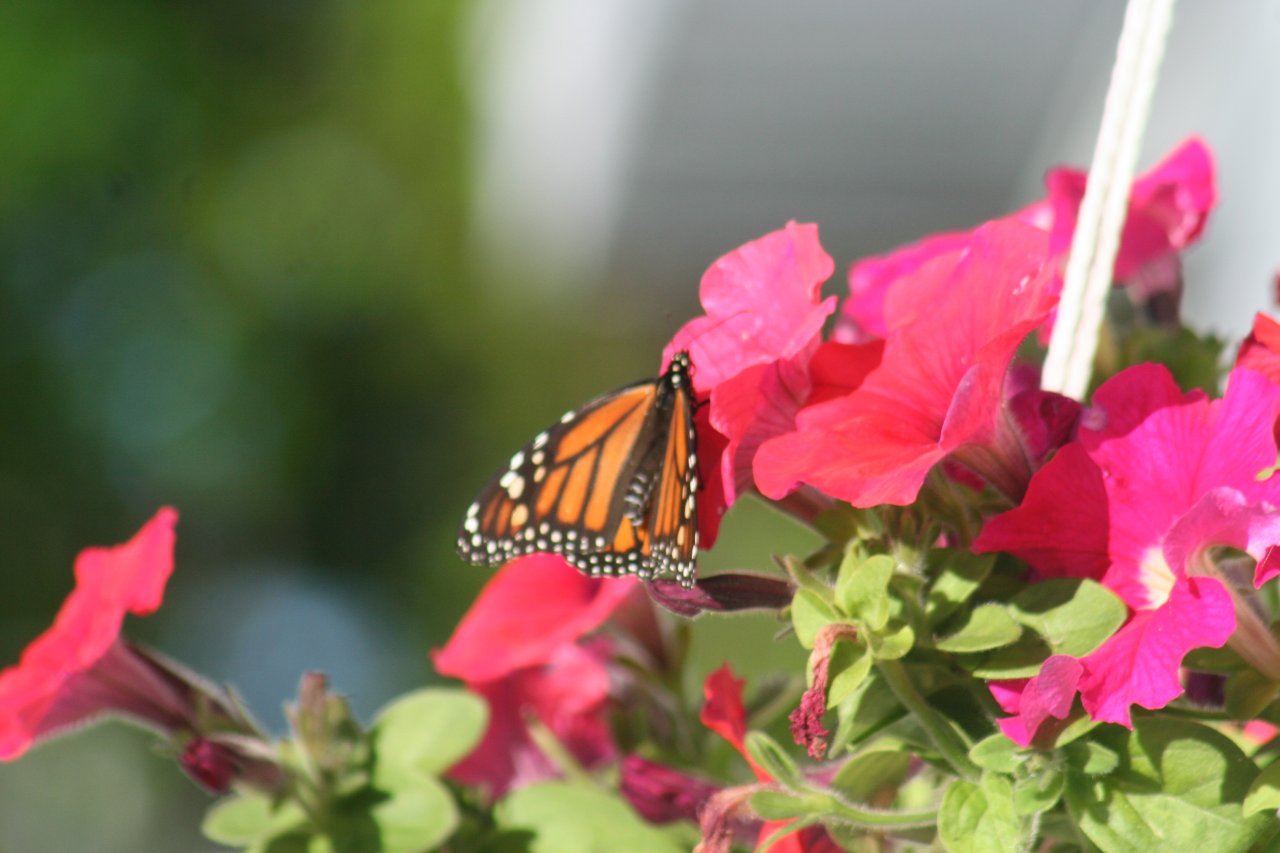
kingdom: Animalia
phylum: Arthropoda
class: Insecta
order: Lepidoptera
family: Nymphalidae
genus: Danaus
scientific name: Danaus plexippus
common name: Monarch
